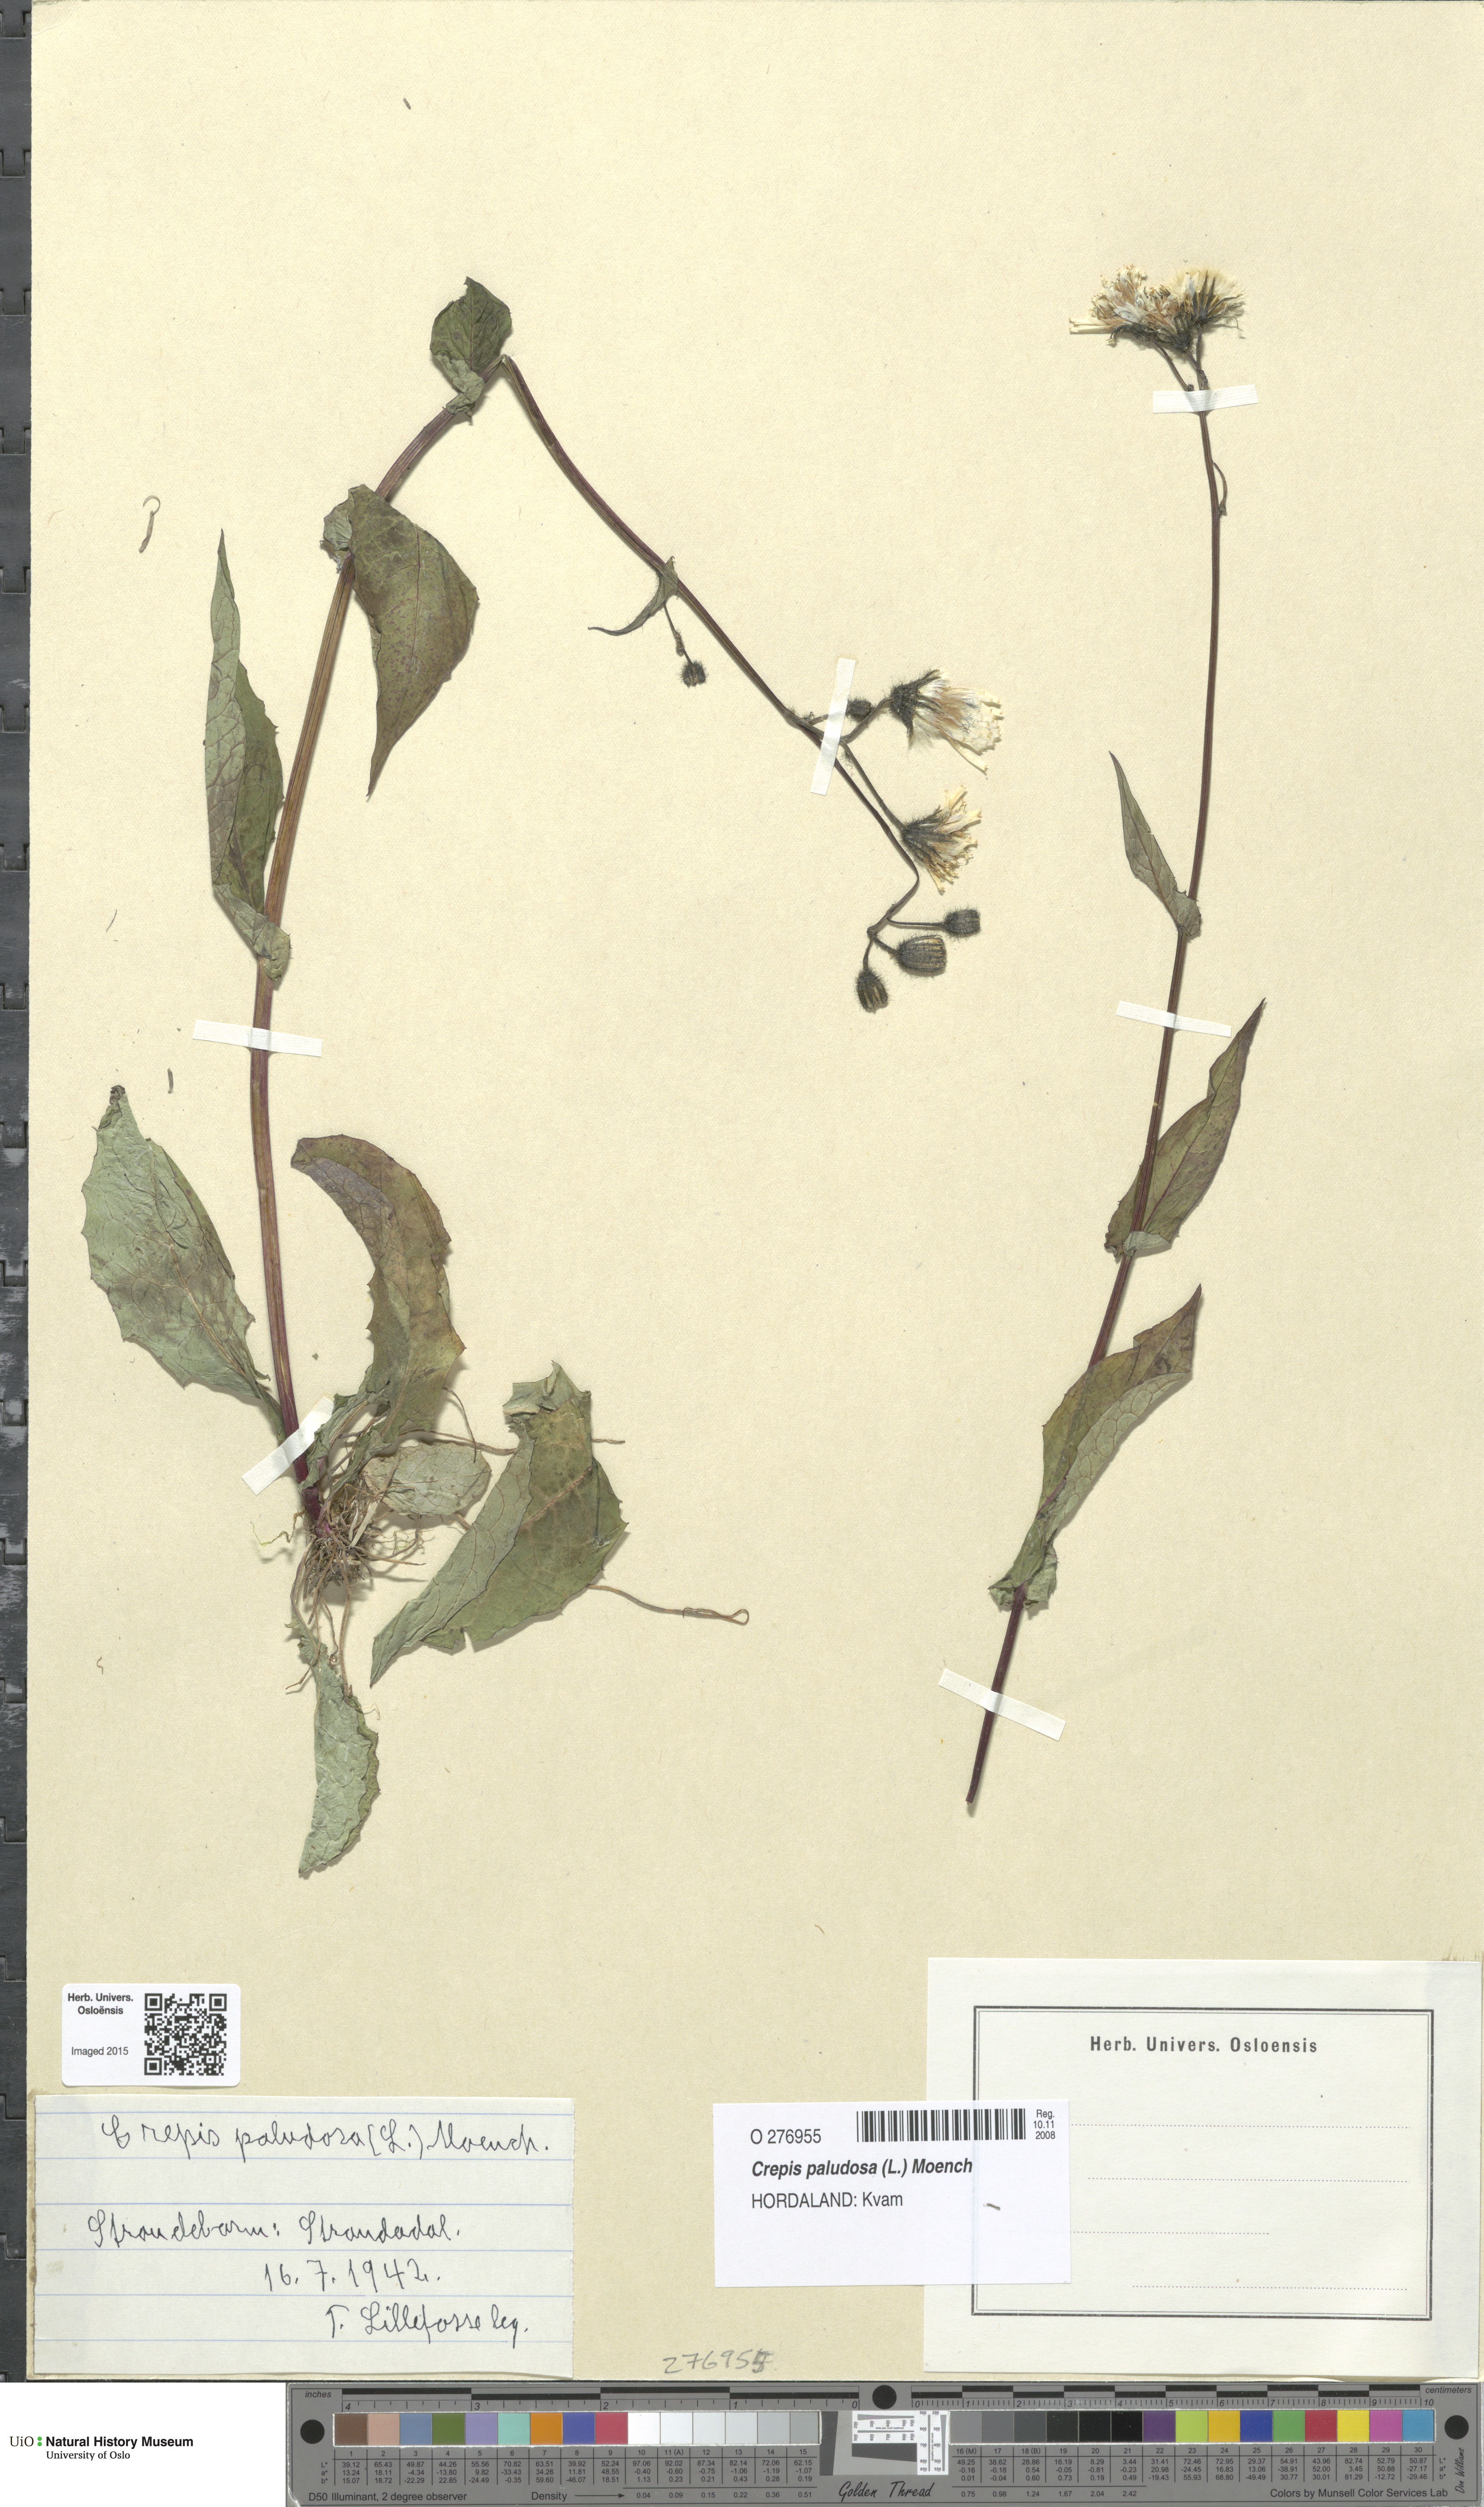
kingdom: Plantae
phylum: Tracheophyta
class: Magnoliopsida
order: Asterales
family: Asteraceae
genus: Crepis
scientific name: Crepis paludosa
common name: Marsh hawk's-beard
